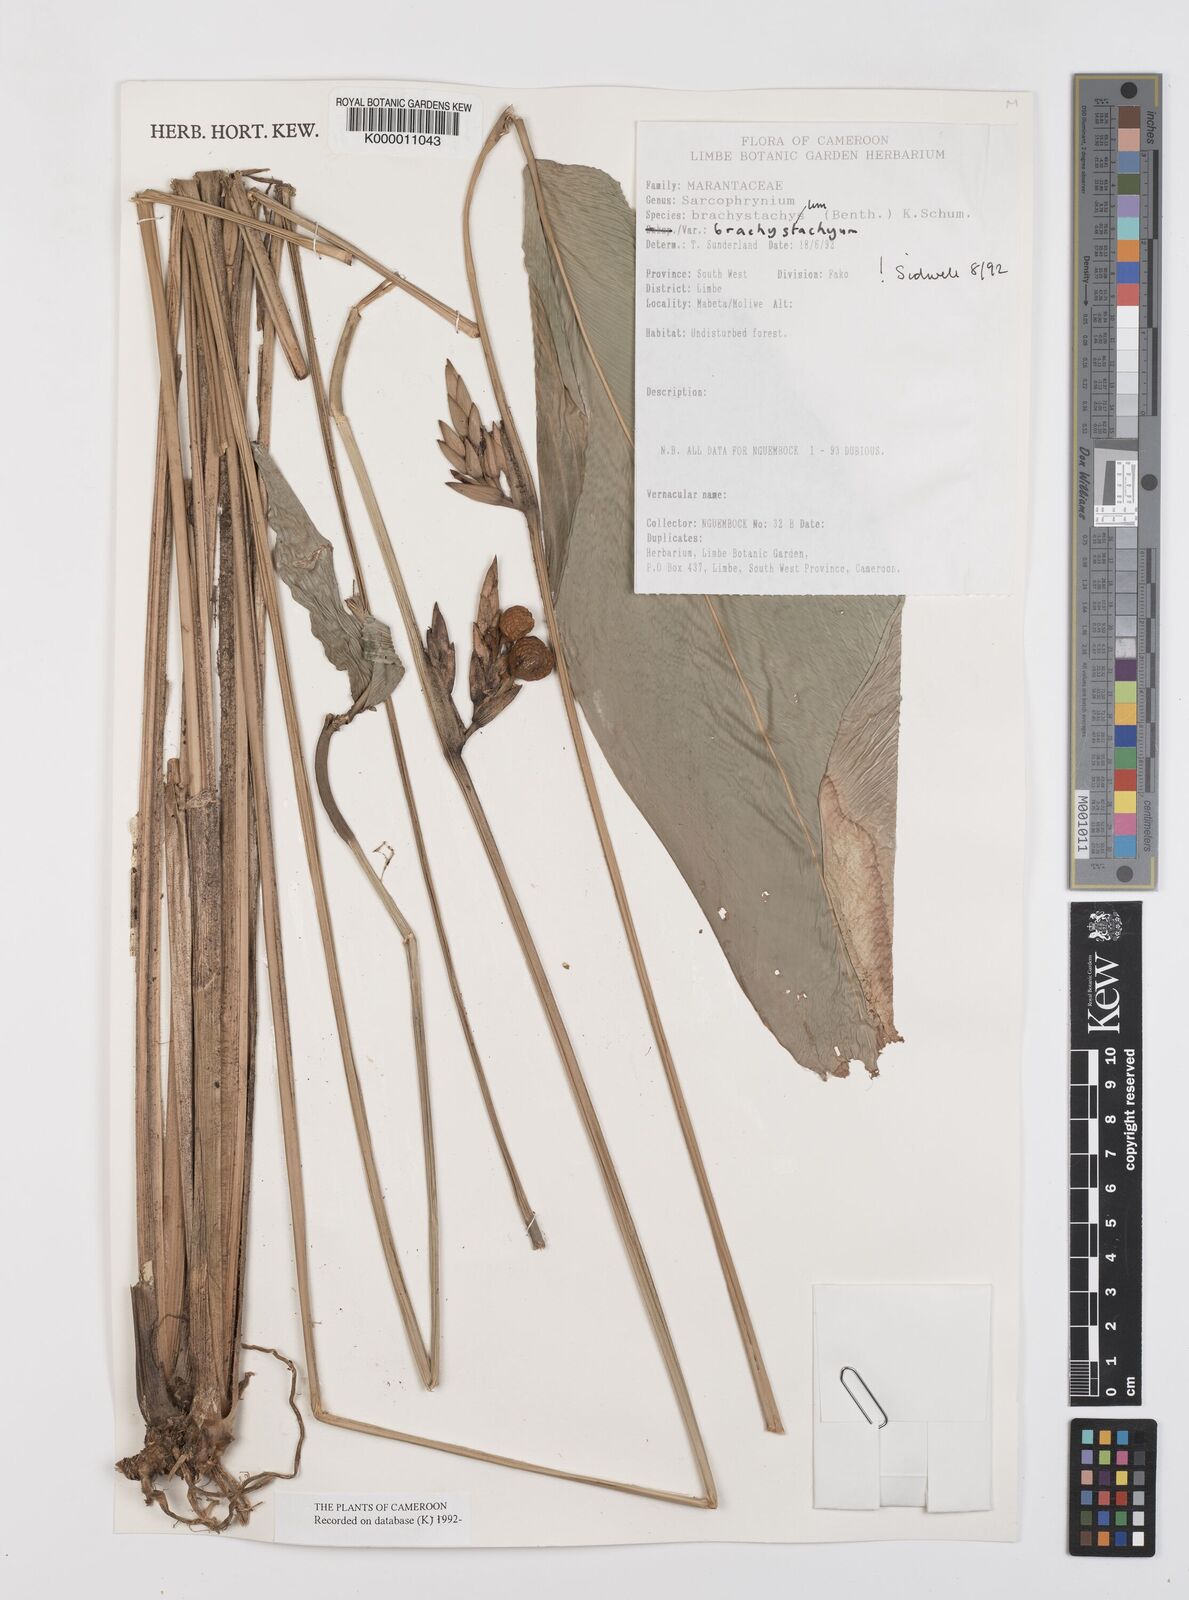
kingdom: Plantae
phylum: Tracheophyta
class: Liliopsida
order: Zingiberales
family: Marantaceae
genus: Sarcophrynium
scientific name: Sarcophrynium
